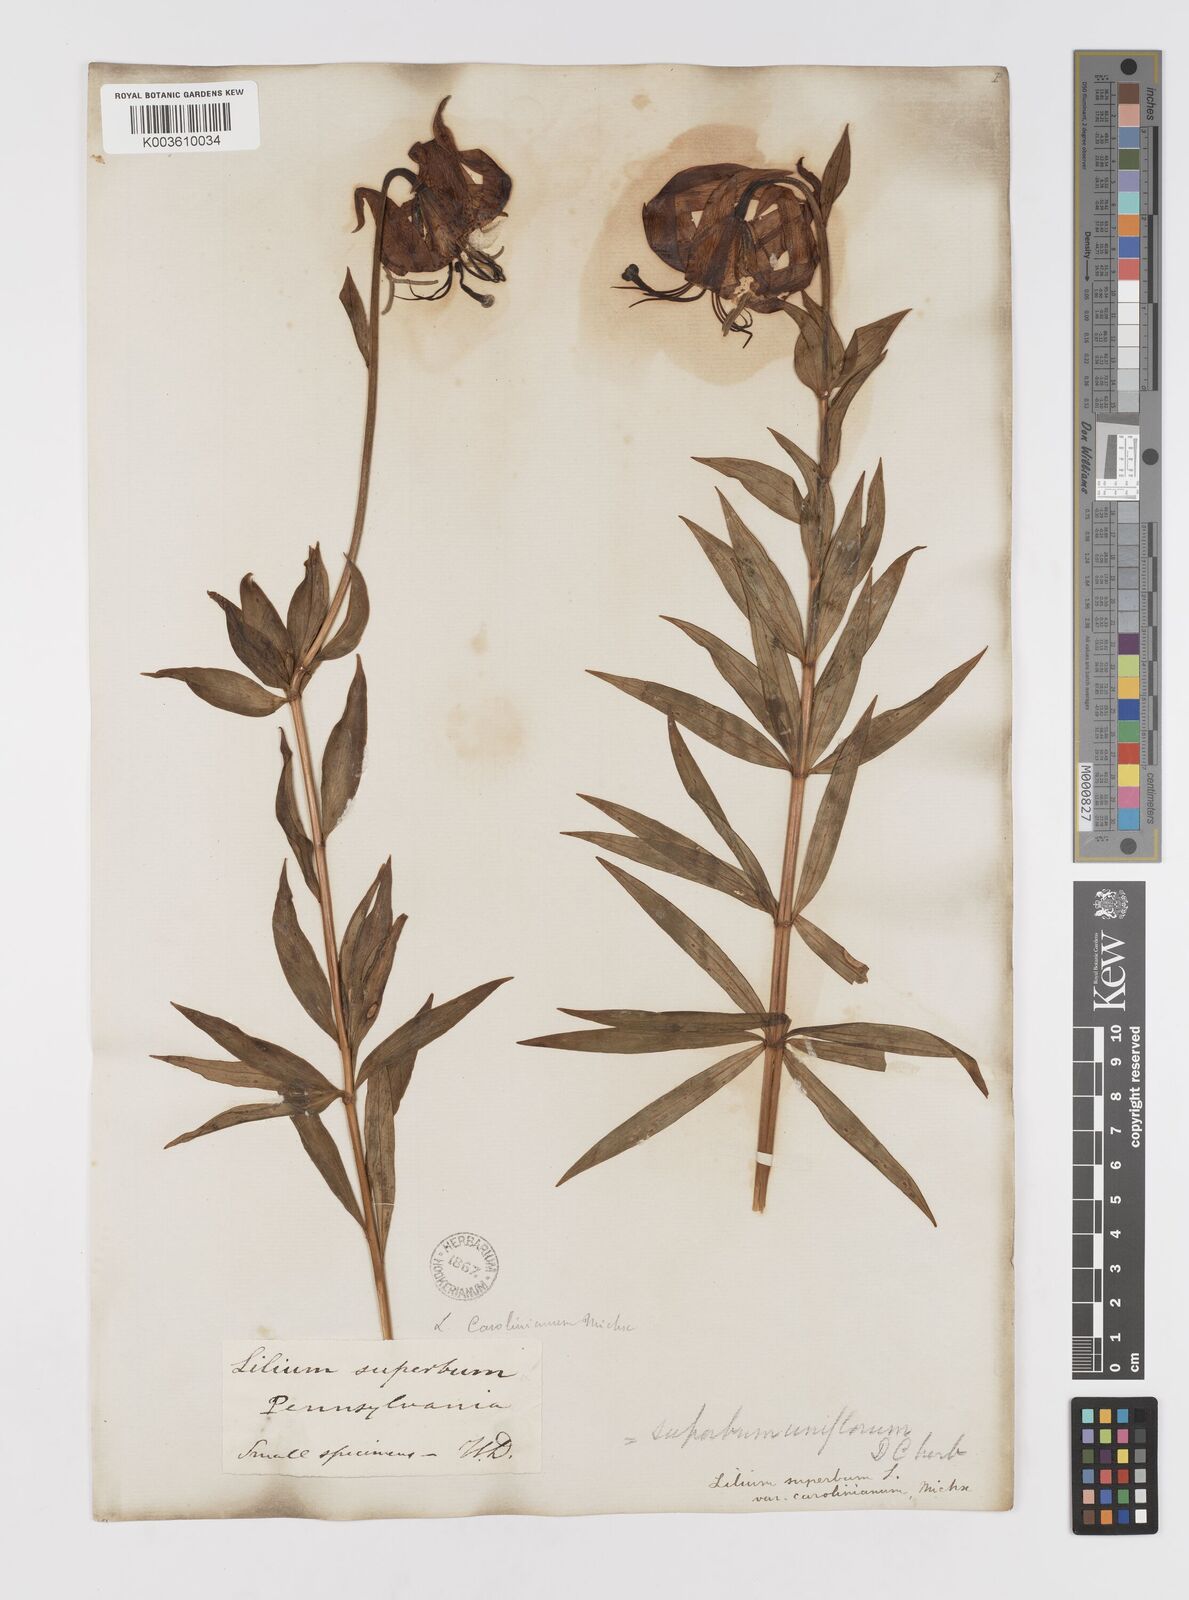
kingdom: Plantae
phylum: Tracheophyta
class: Liliopsida
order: Liliales
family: Liliaceae
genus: Lilium
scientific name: Lilium superbum
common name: American turk's-cap lily
